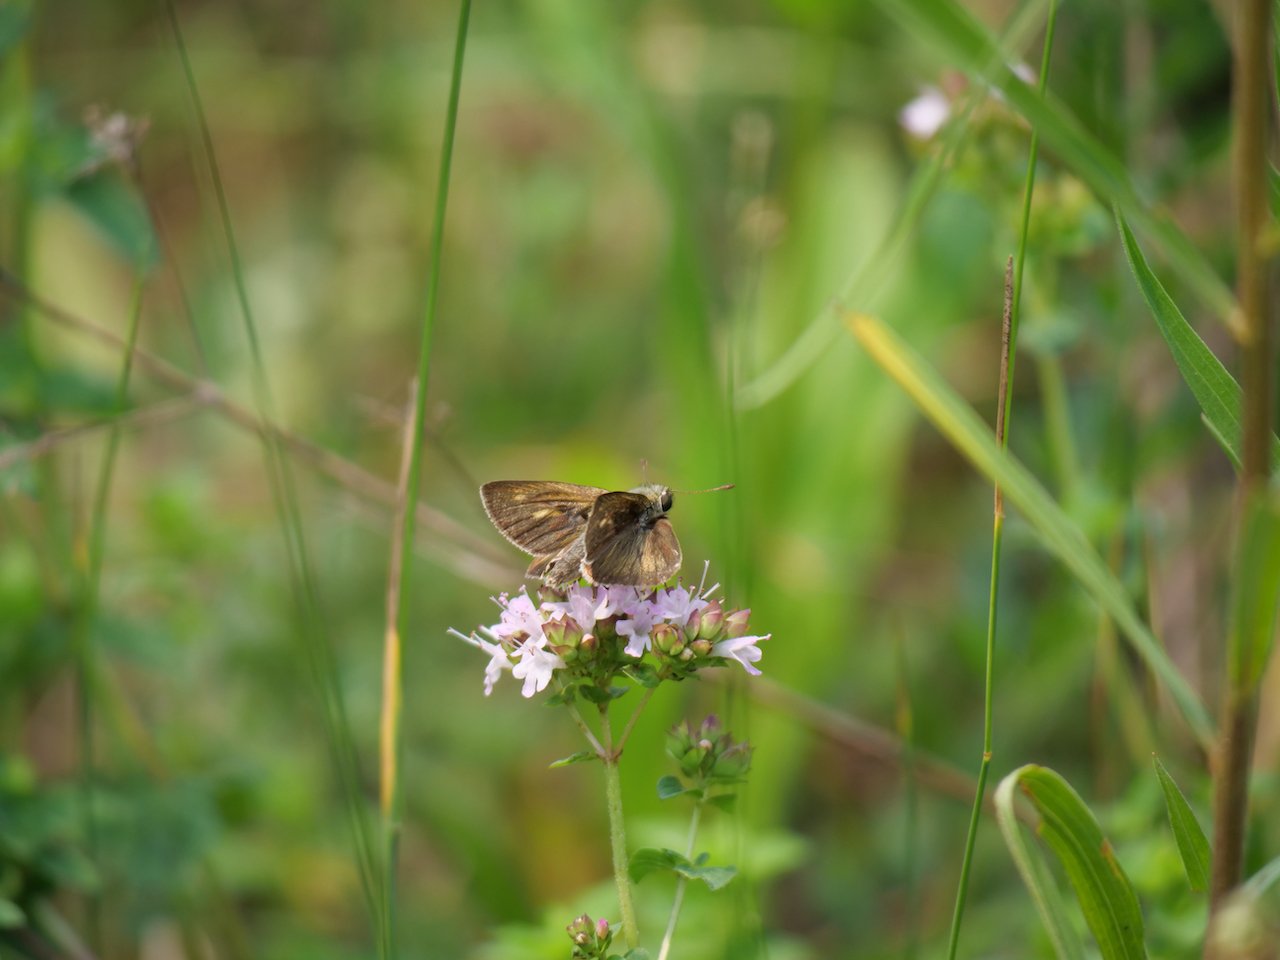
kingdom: Animalia
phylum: Arthropoda
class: Insecta
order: Lepidoptera
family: Hesperiidae
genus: Polites
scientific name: Polites egeremet
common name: Northern Broken-Dash
